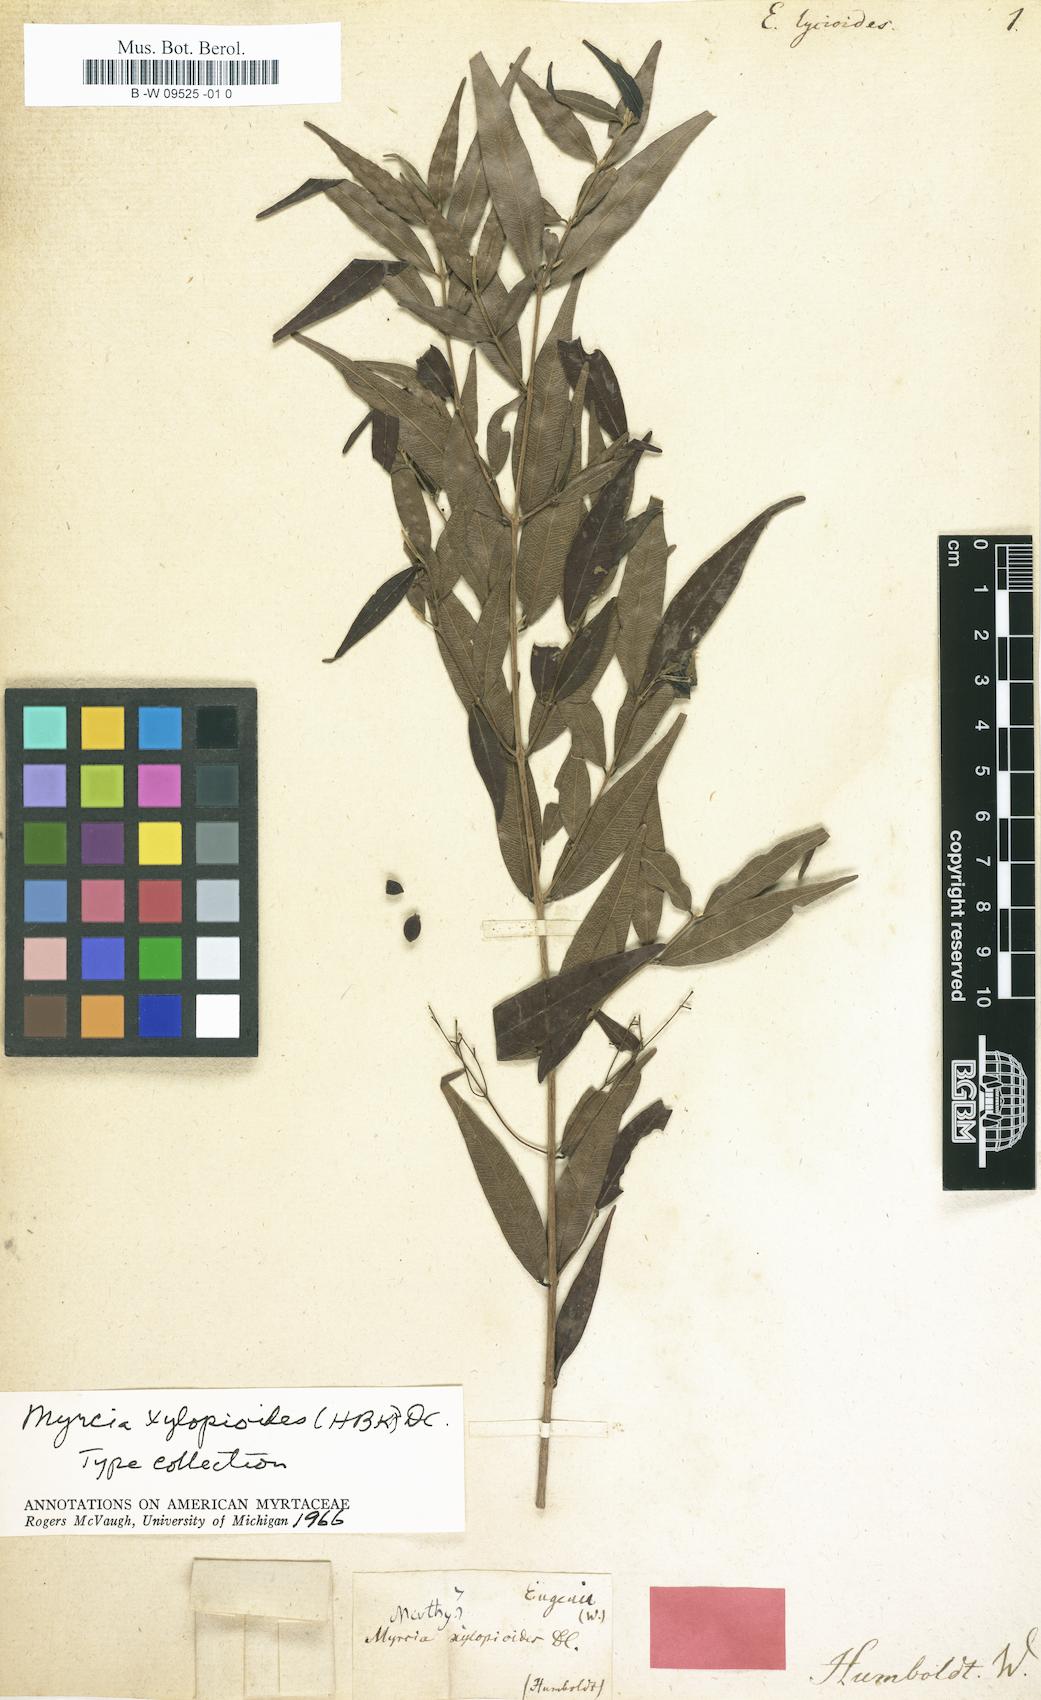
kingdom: Plantae
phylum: Tracheophyta
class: Magnoliopsida
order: Myrtales
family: Myrtaceae
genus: Eugenia
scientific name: Eugenia
